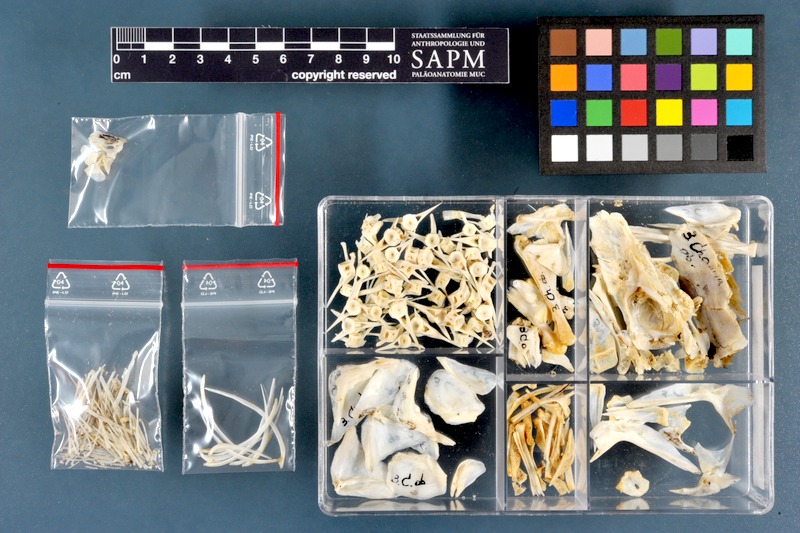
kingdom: Animalia
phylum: Chordata
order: Perciformes
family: Channidae
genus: Parachanna
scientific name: Parachanna obscura
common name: Snake-head
